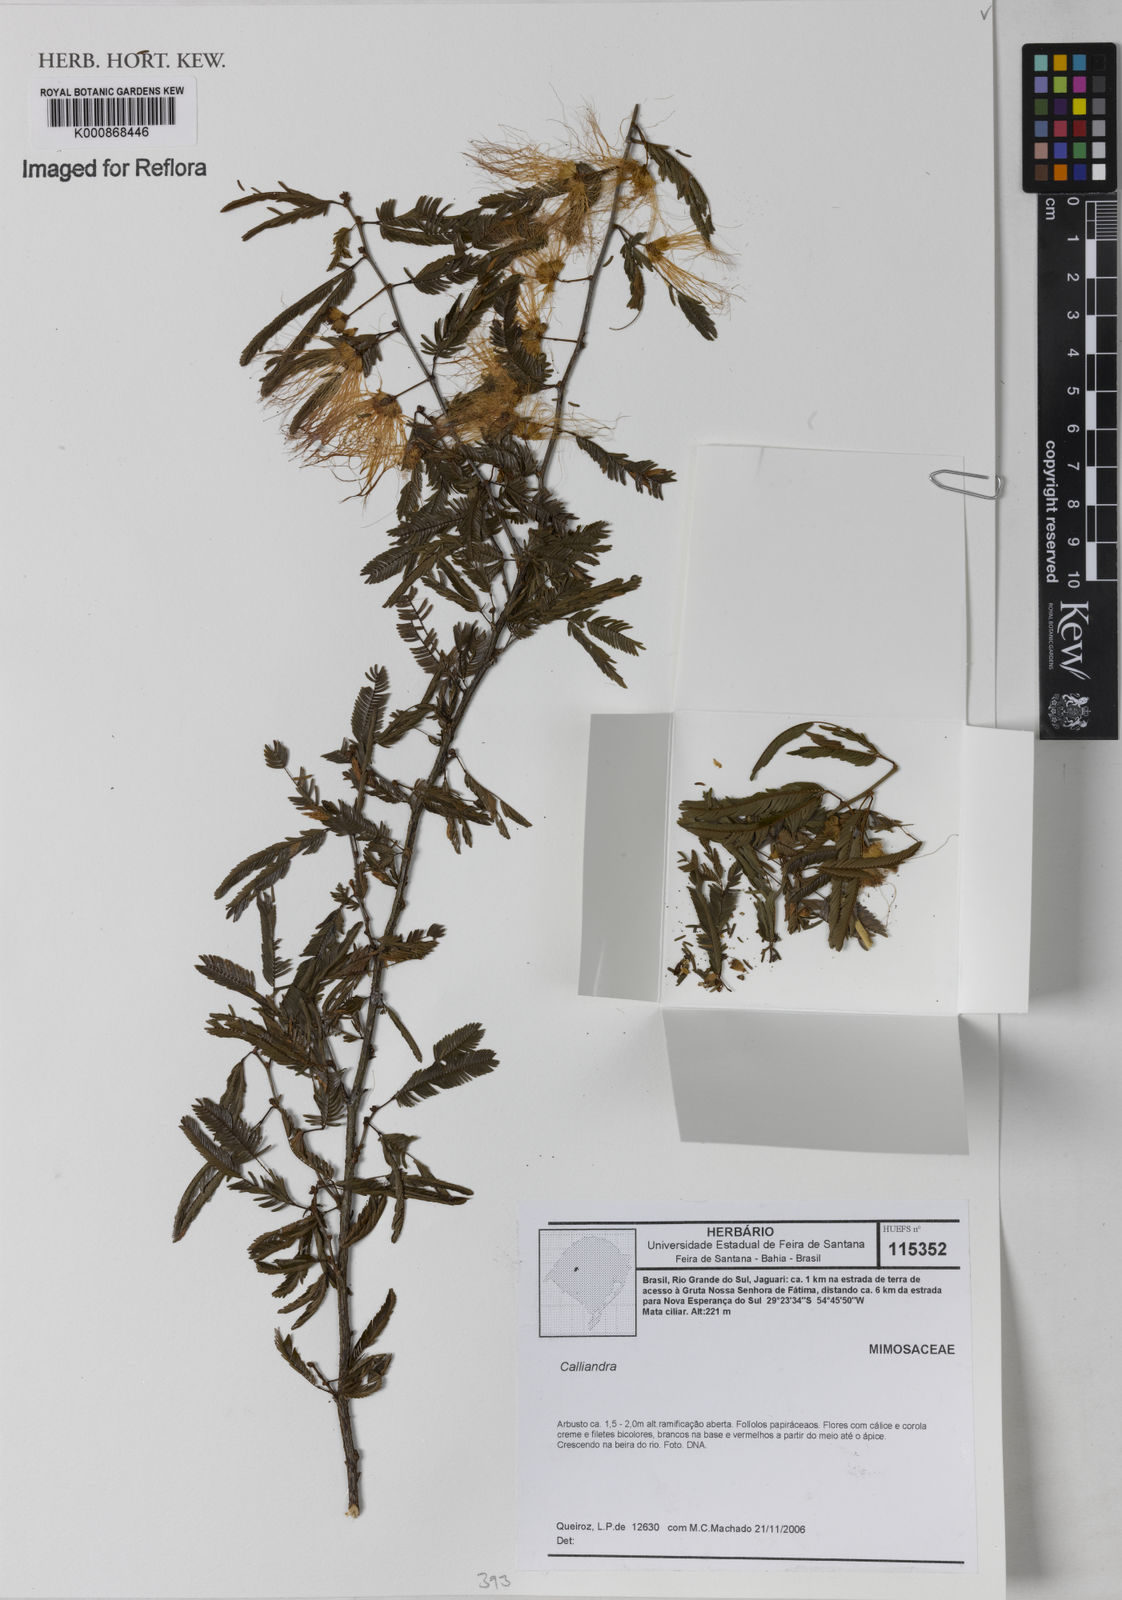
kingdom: Plantae
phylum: Tracheophyta
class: Magnoliopsida
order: Fabales
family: Fabaceae
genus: Calliandra
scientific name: Calliandra
